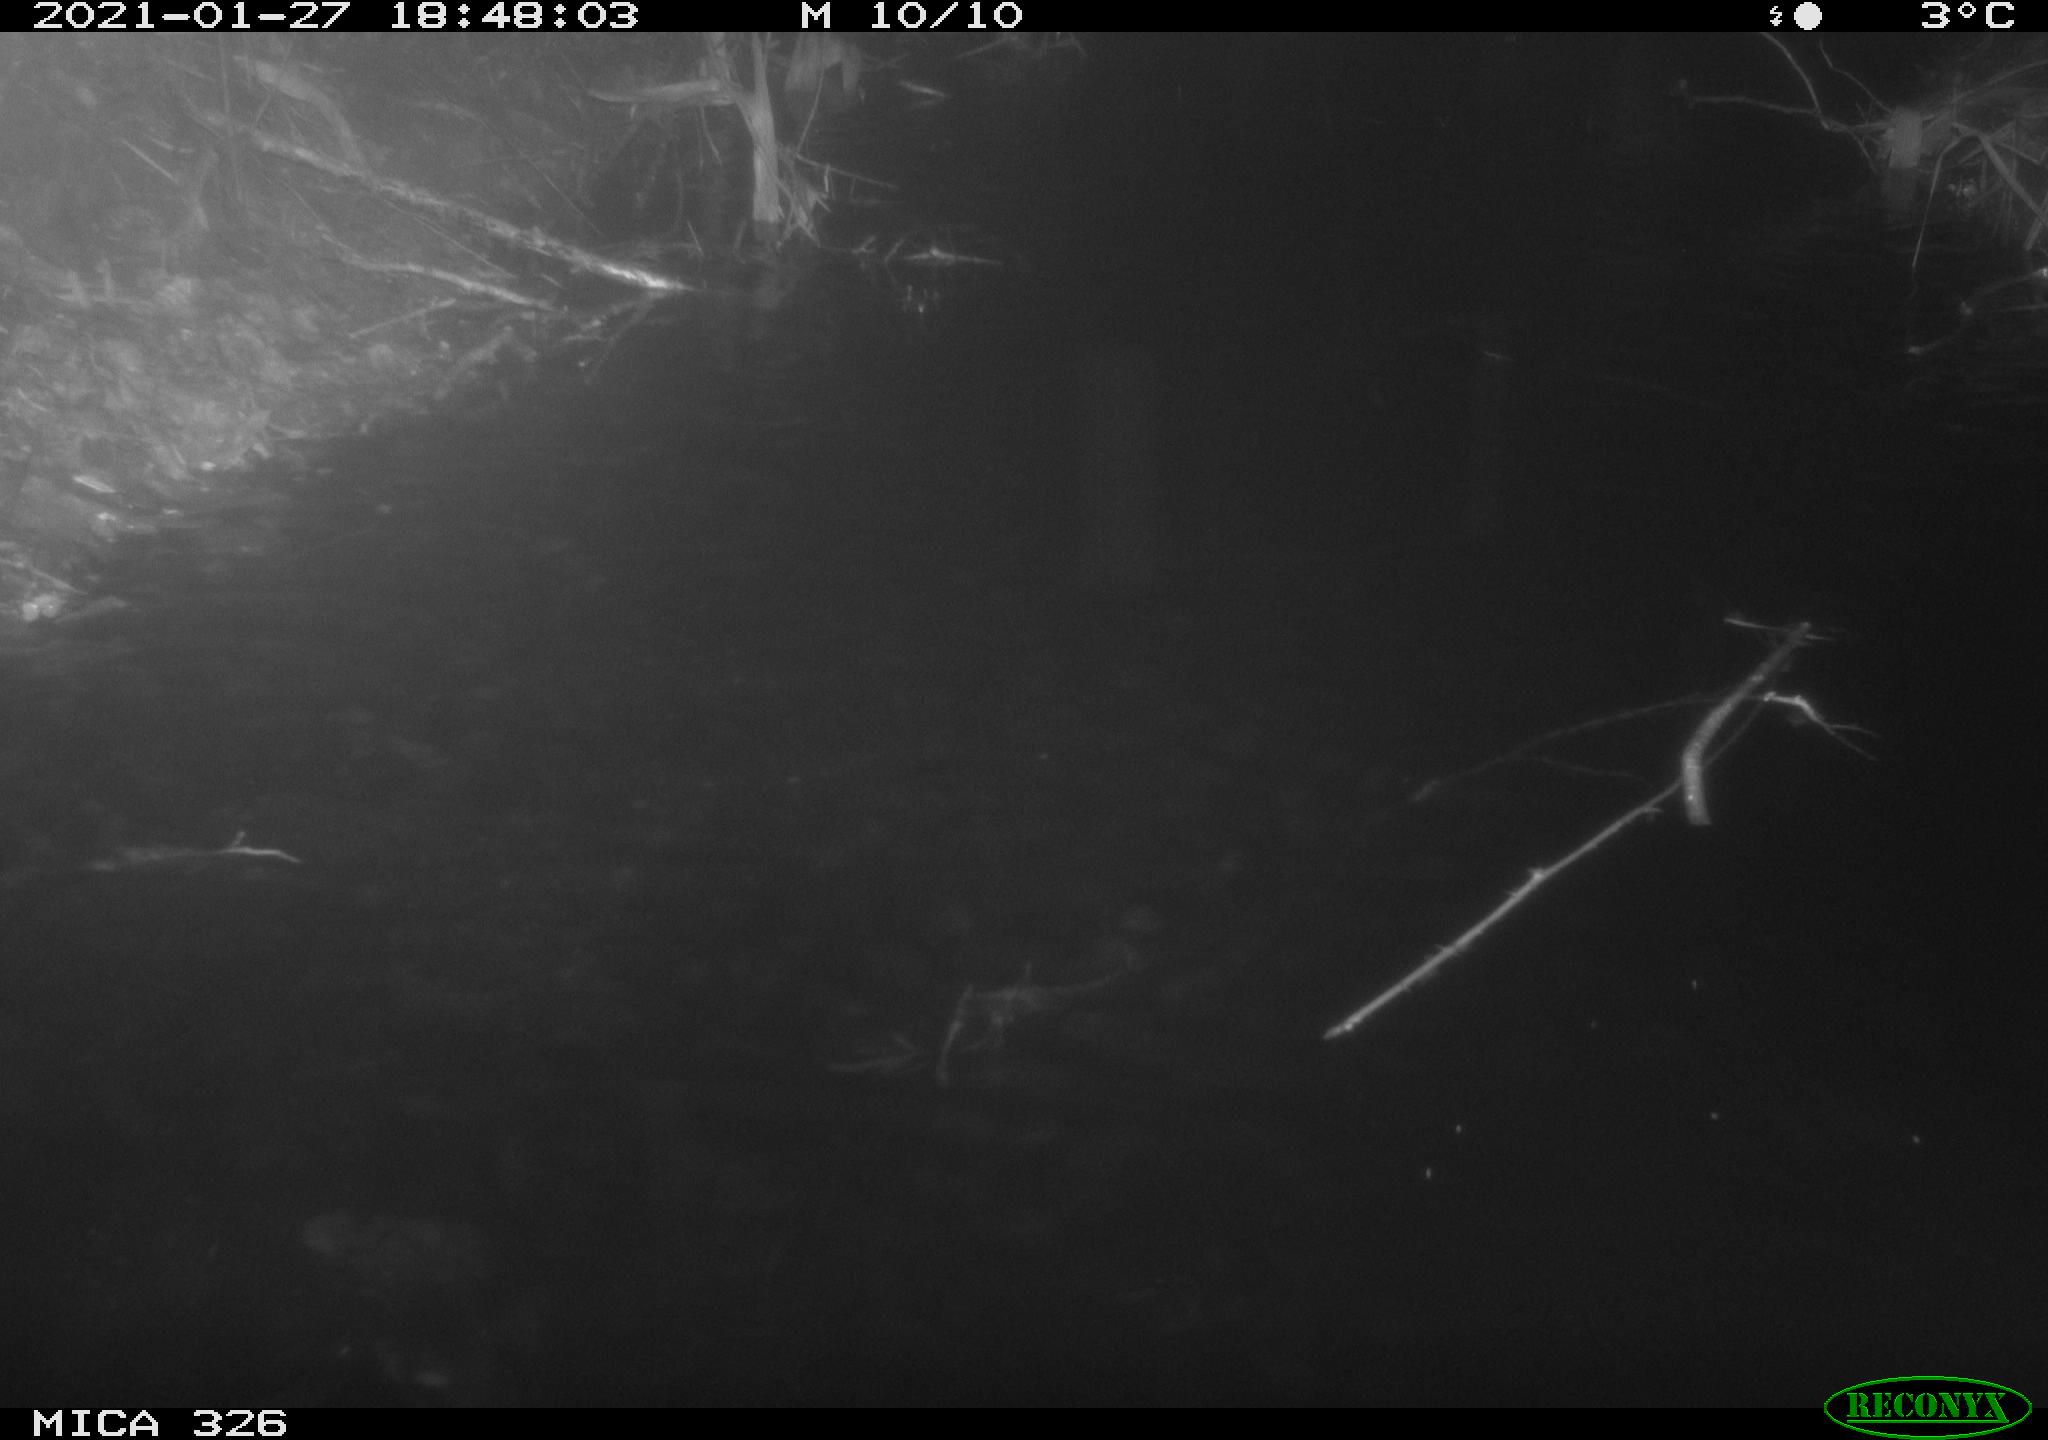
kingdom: Animalia
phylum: Chordata
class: Mammalia
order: Rodentia
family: Cricetidae
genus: Ondatra
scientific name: Ondatra zibethicus
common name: Muskrat
